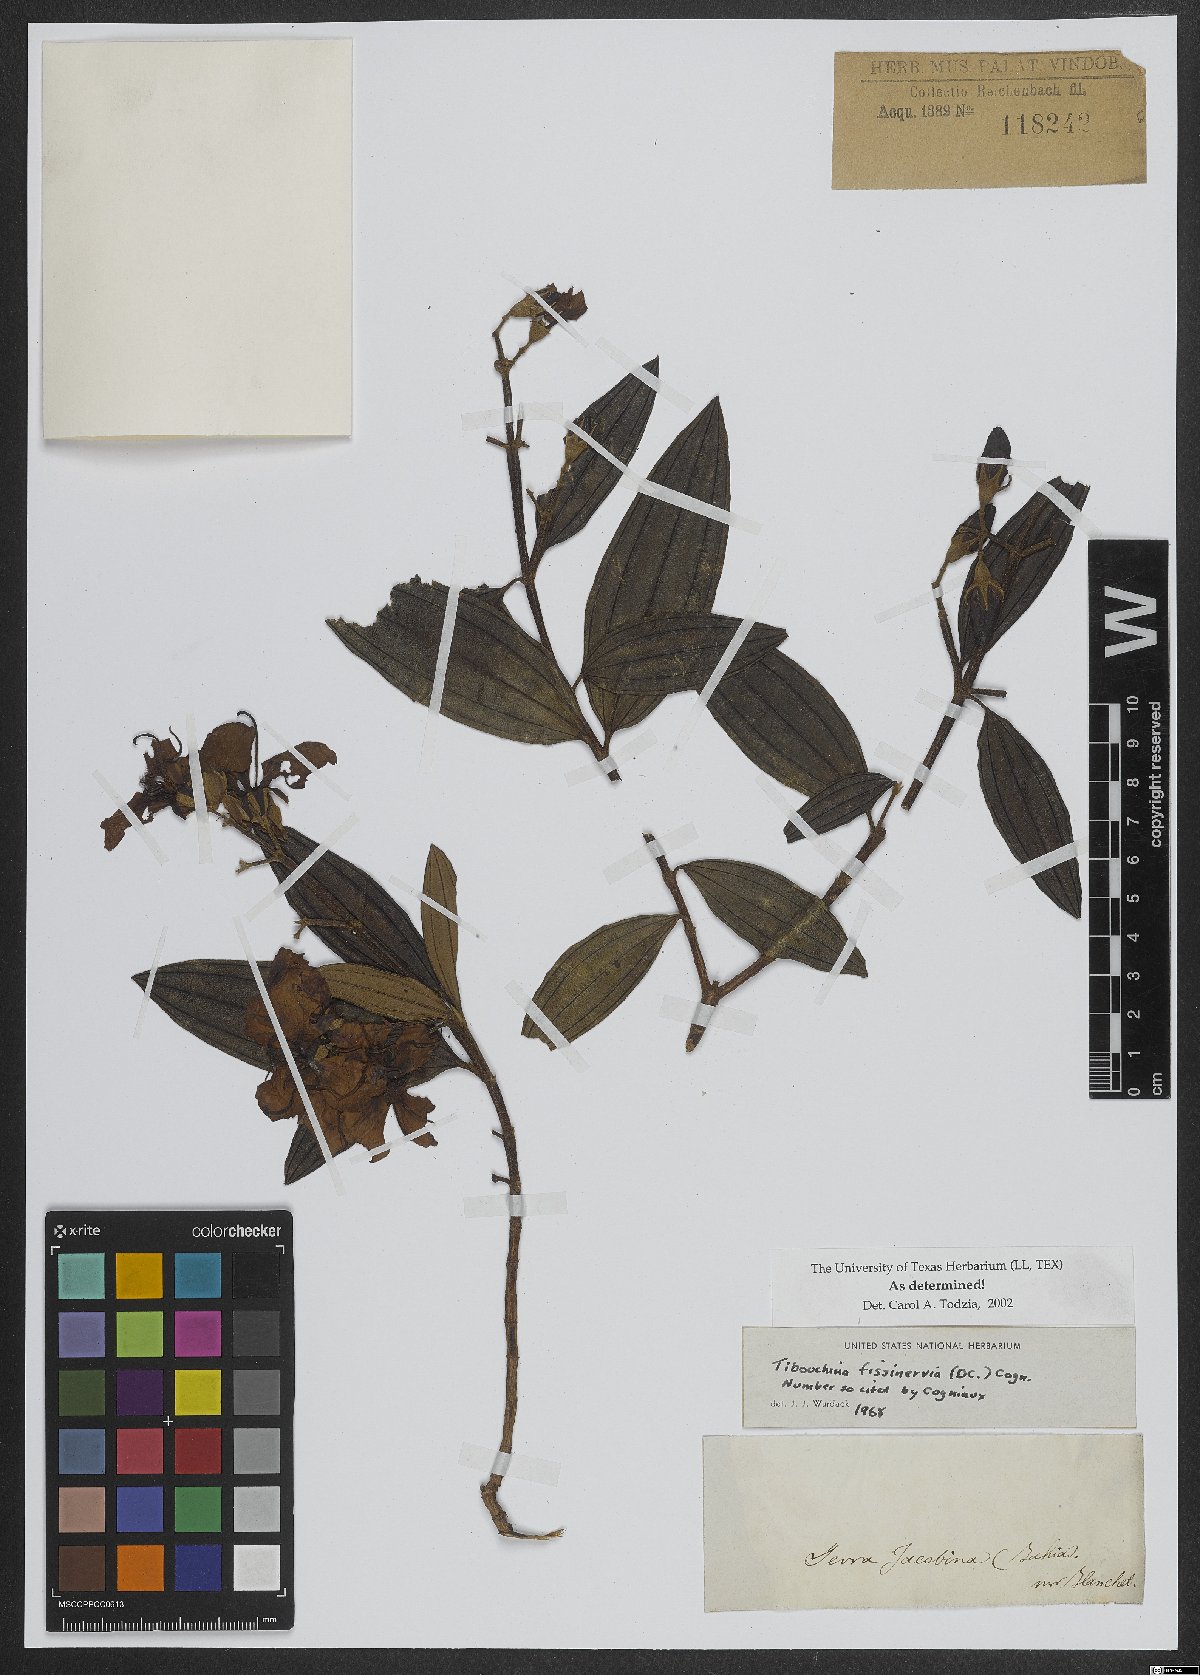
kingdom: Plantae
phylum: Tracheophyta
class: Magnoliopsida
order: Myrtales
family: Melastomataceae
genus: Pleroma
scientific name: Pleroma fissinervium
